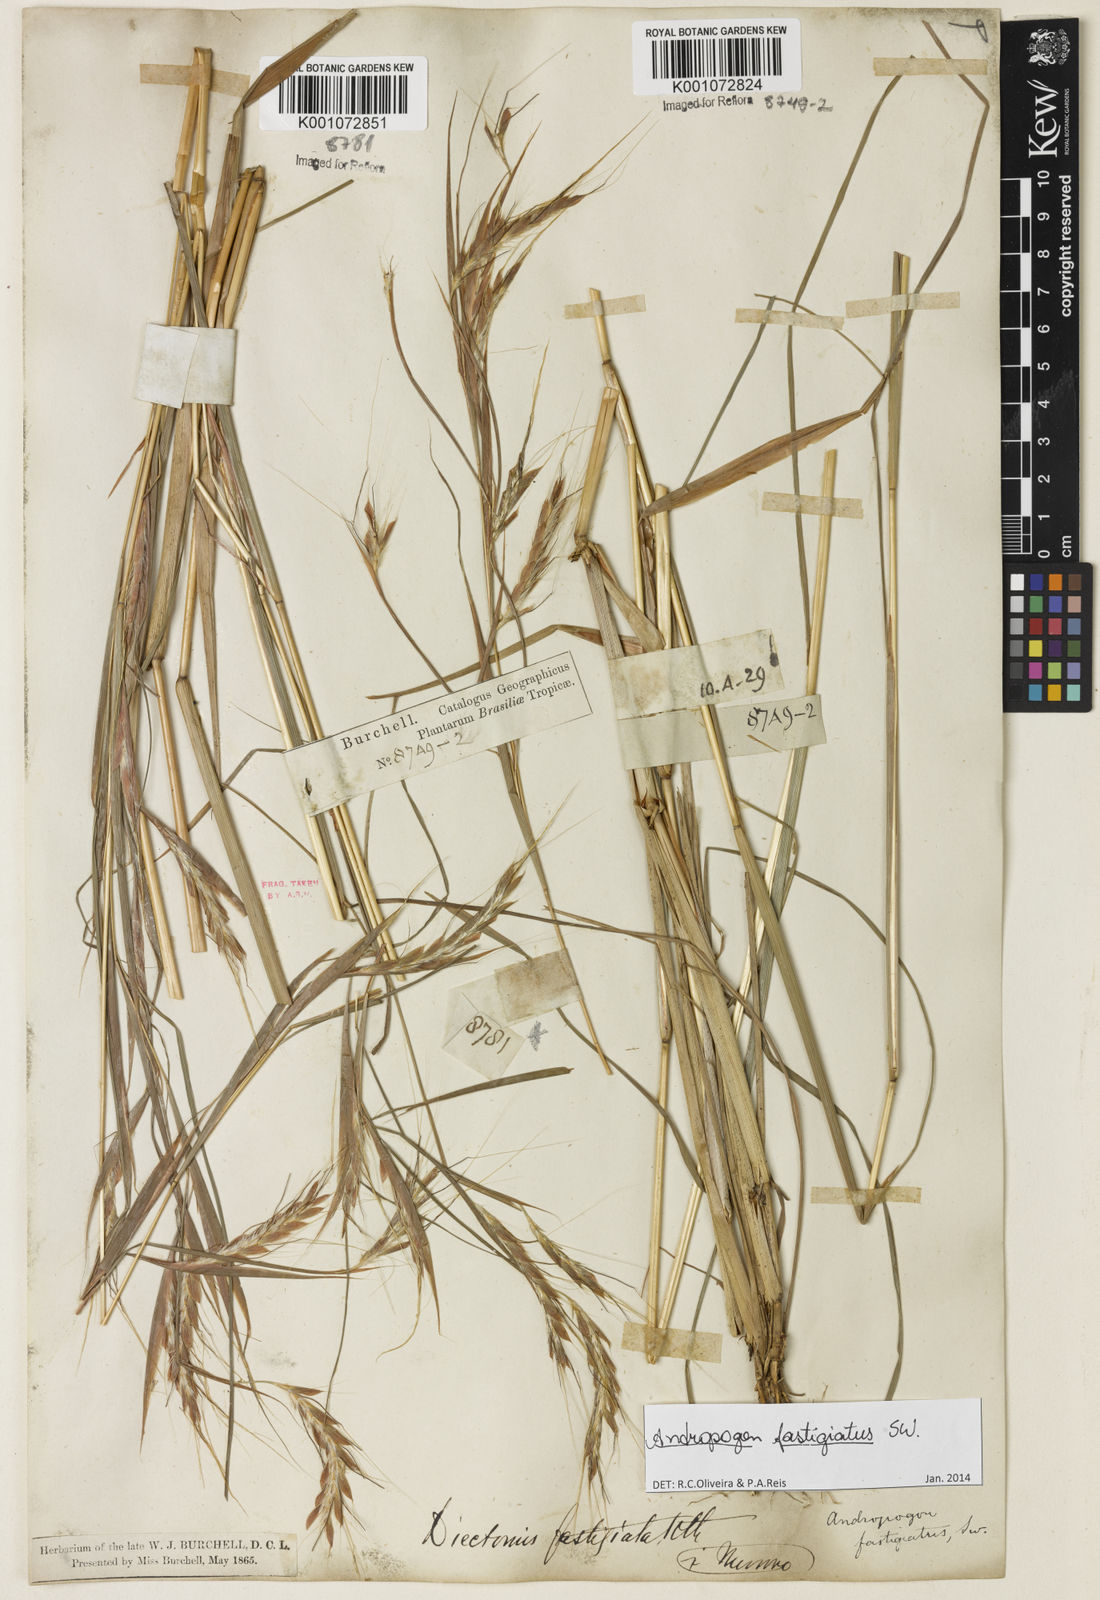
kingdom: Plantae
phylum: Tracheophyta
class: Liliopsida
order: Poales
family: Poaceae
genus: Diectomis
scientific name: Diectomis fastigiata
